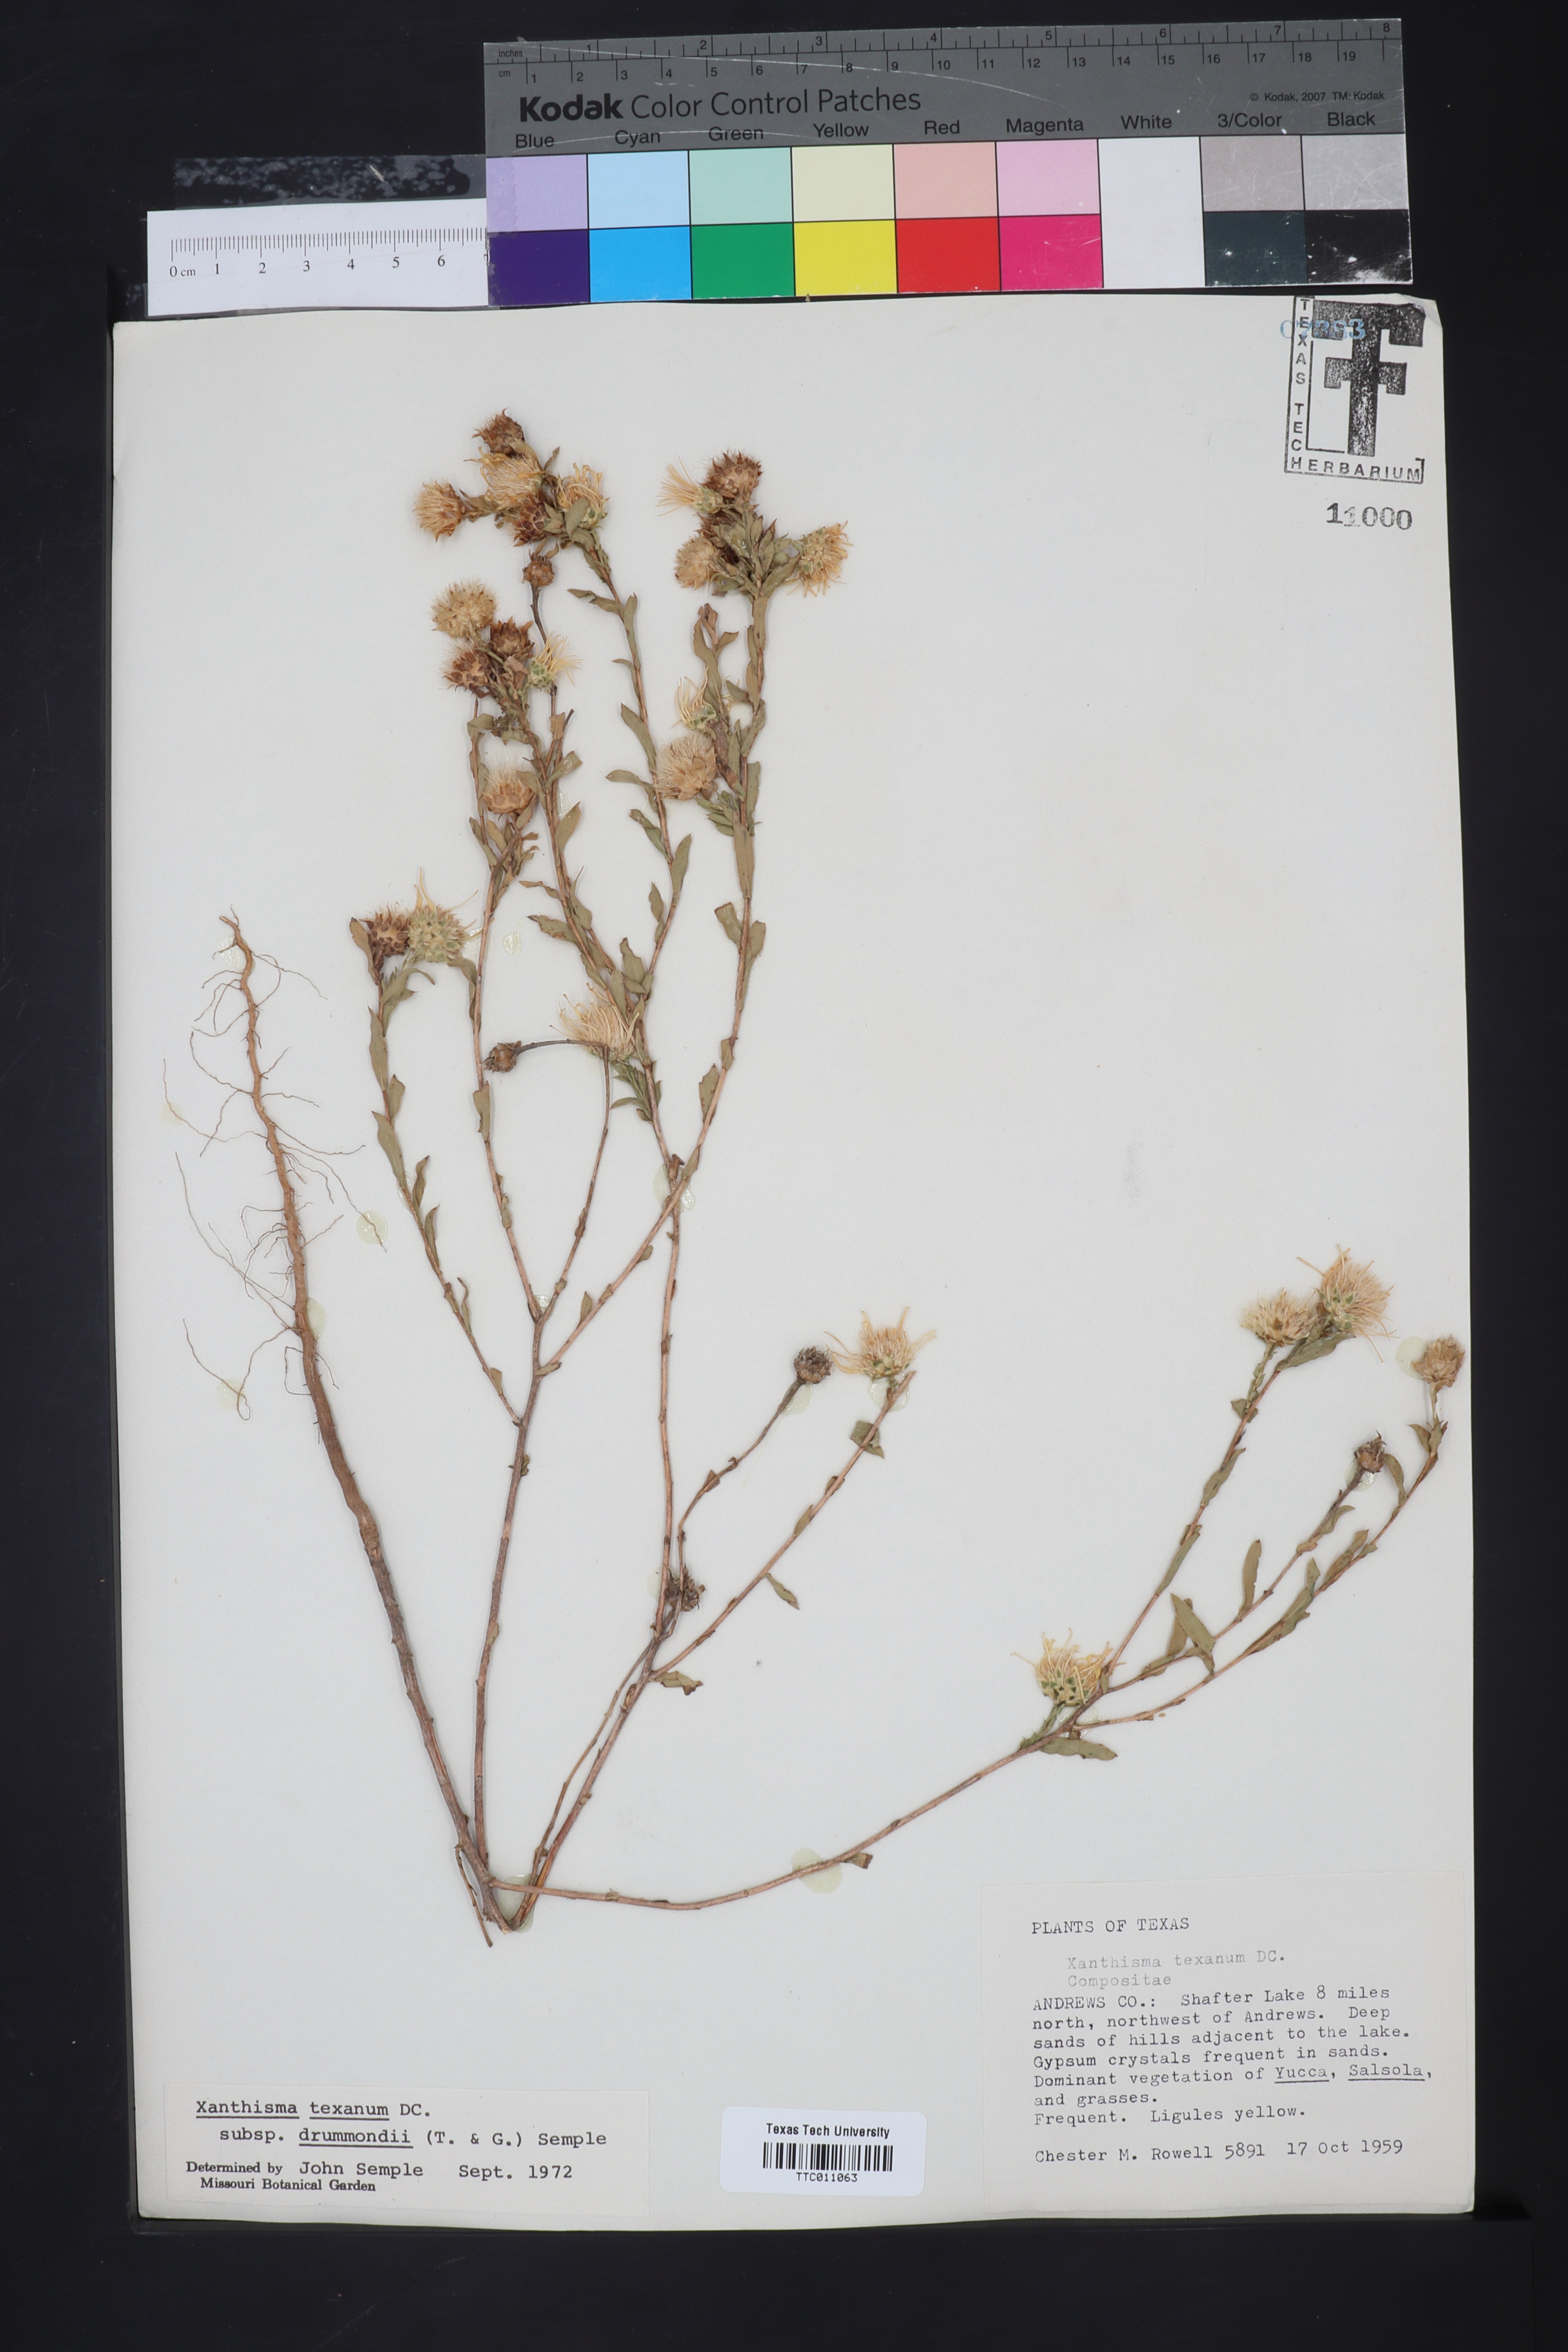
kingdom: Plantae
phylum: Tracheophyta
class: Magnoliopsida
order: Asterales
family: Asteraceae
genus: Xanthisma
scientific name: Xanthisma texanum
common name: Texas sleepy daisy
